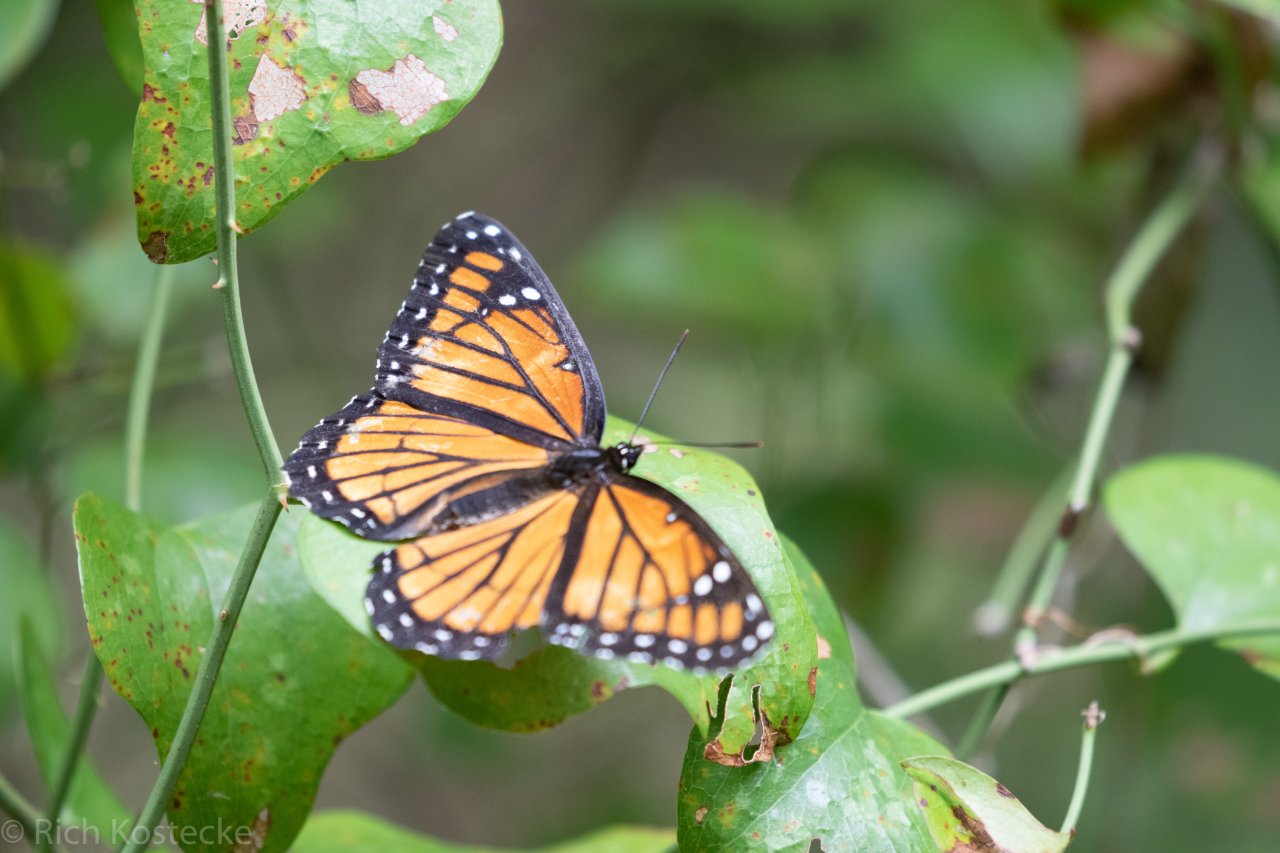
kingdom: Animalia
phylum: Arthropoda
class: Insecta
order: Lepidoptera
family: Nymphalidae
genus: Limenitis
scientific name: Limenitis archippus
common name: Viceroy
